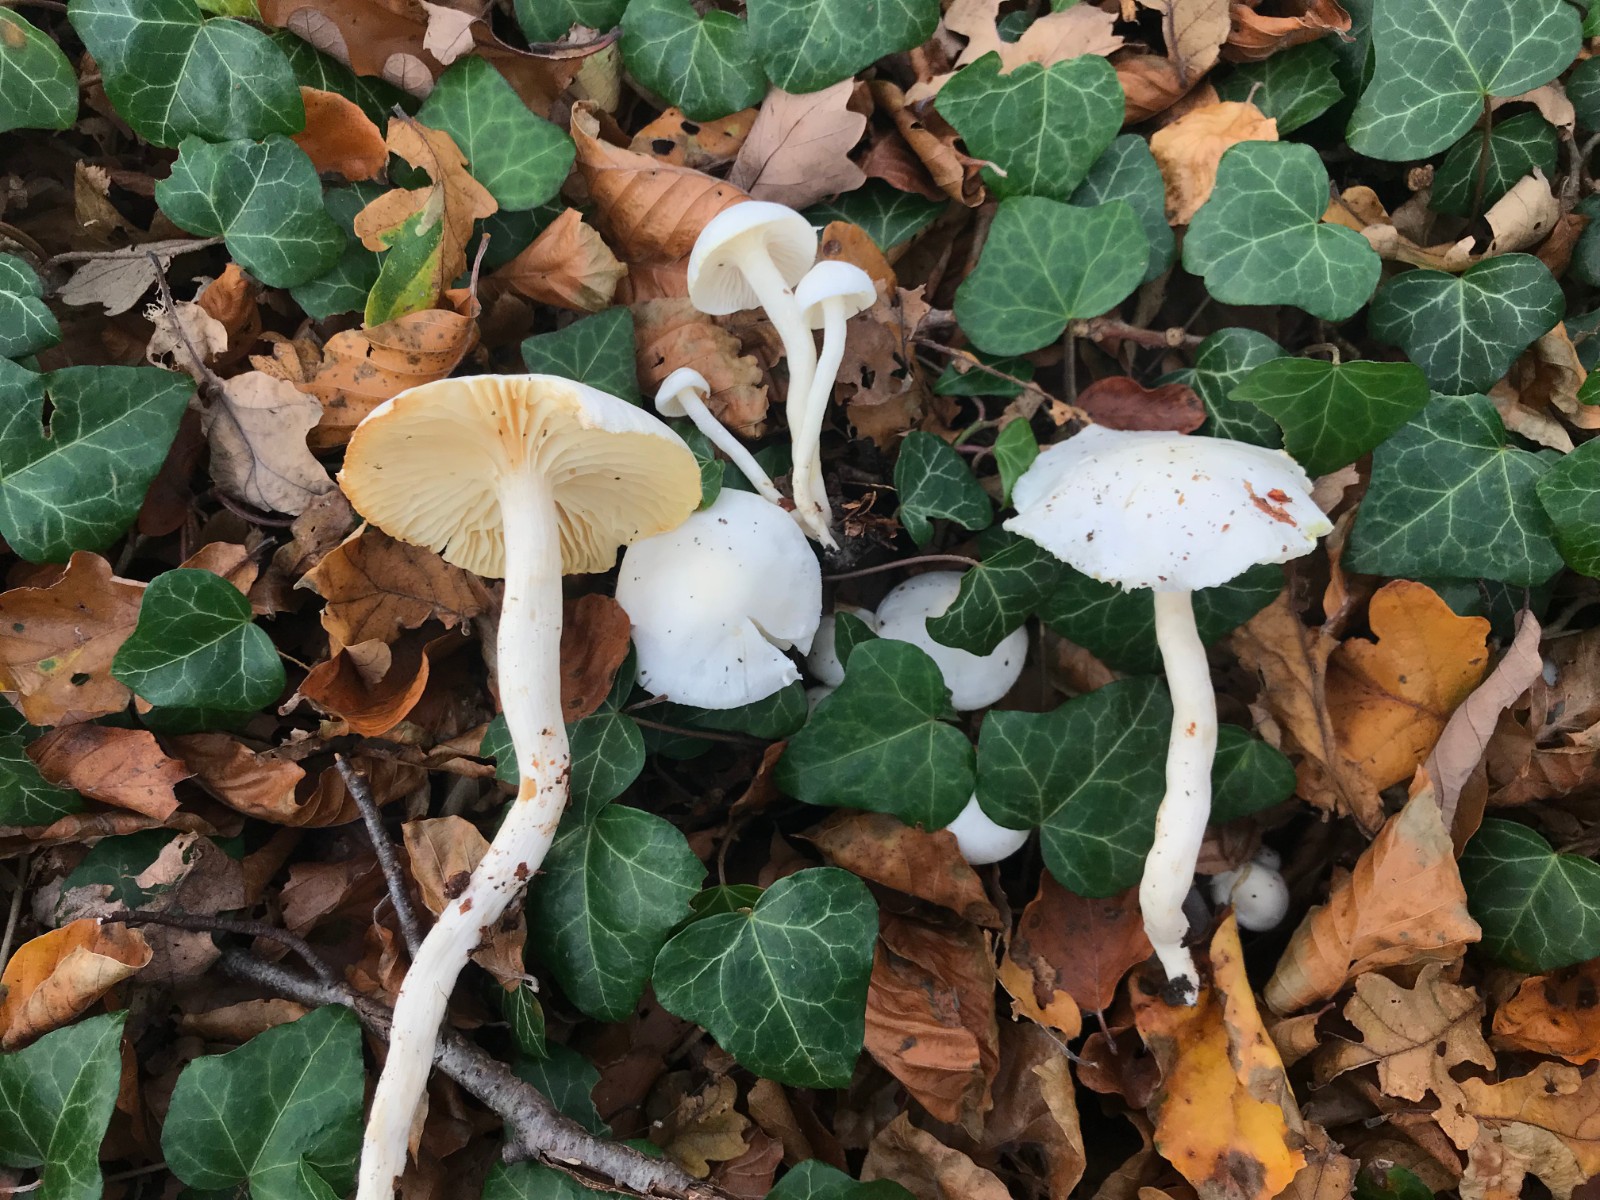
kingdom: Fungi
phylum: Basidiomycota
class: Agaricomycetes
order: Agaricales
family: Hygrophoraceae
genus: Hygrophorus
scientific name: Hygrophorus discoxanthus
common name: ildelugtende sneglehat
